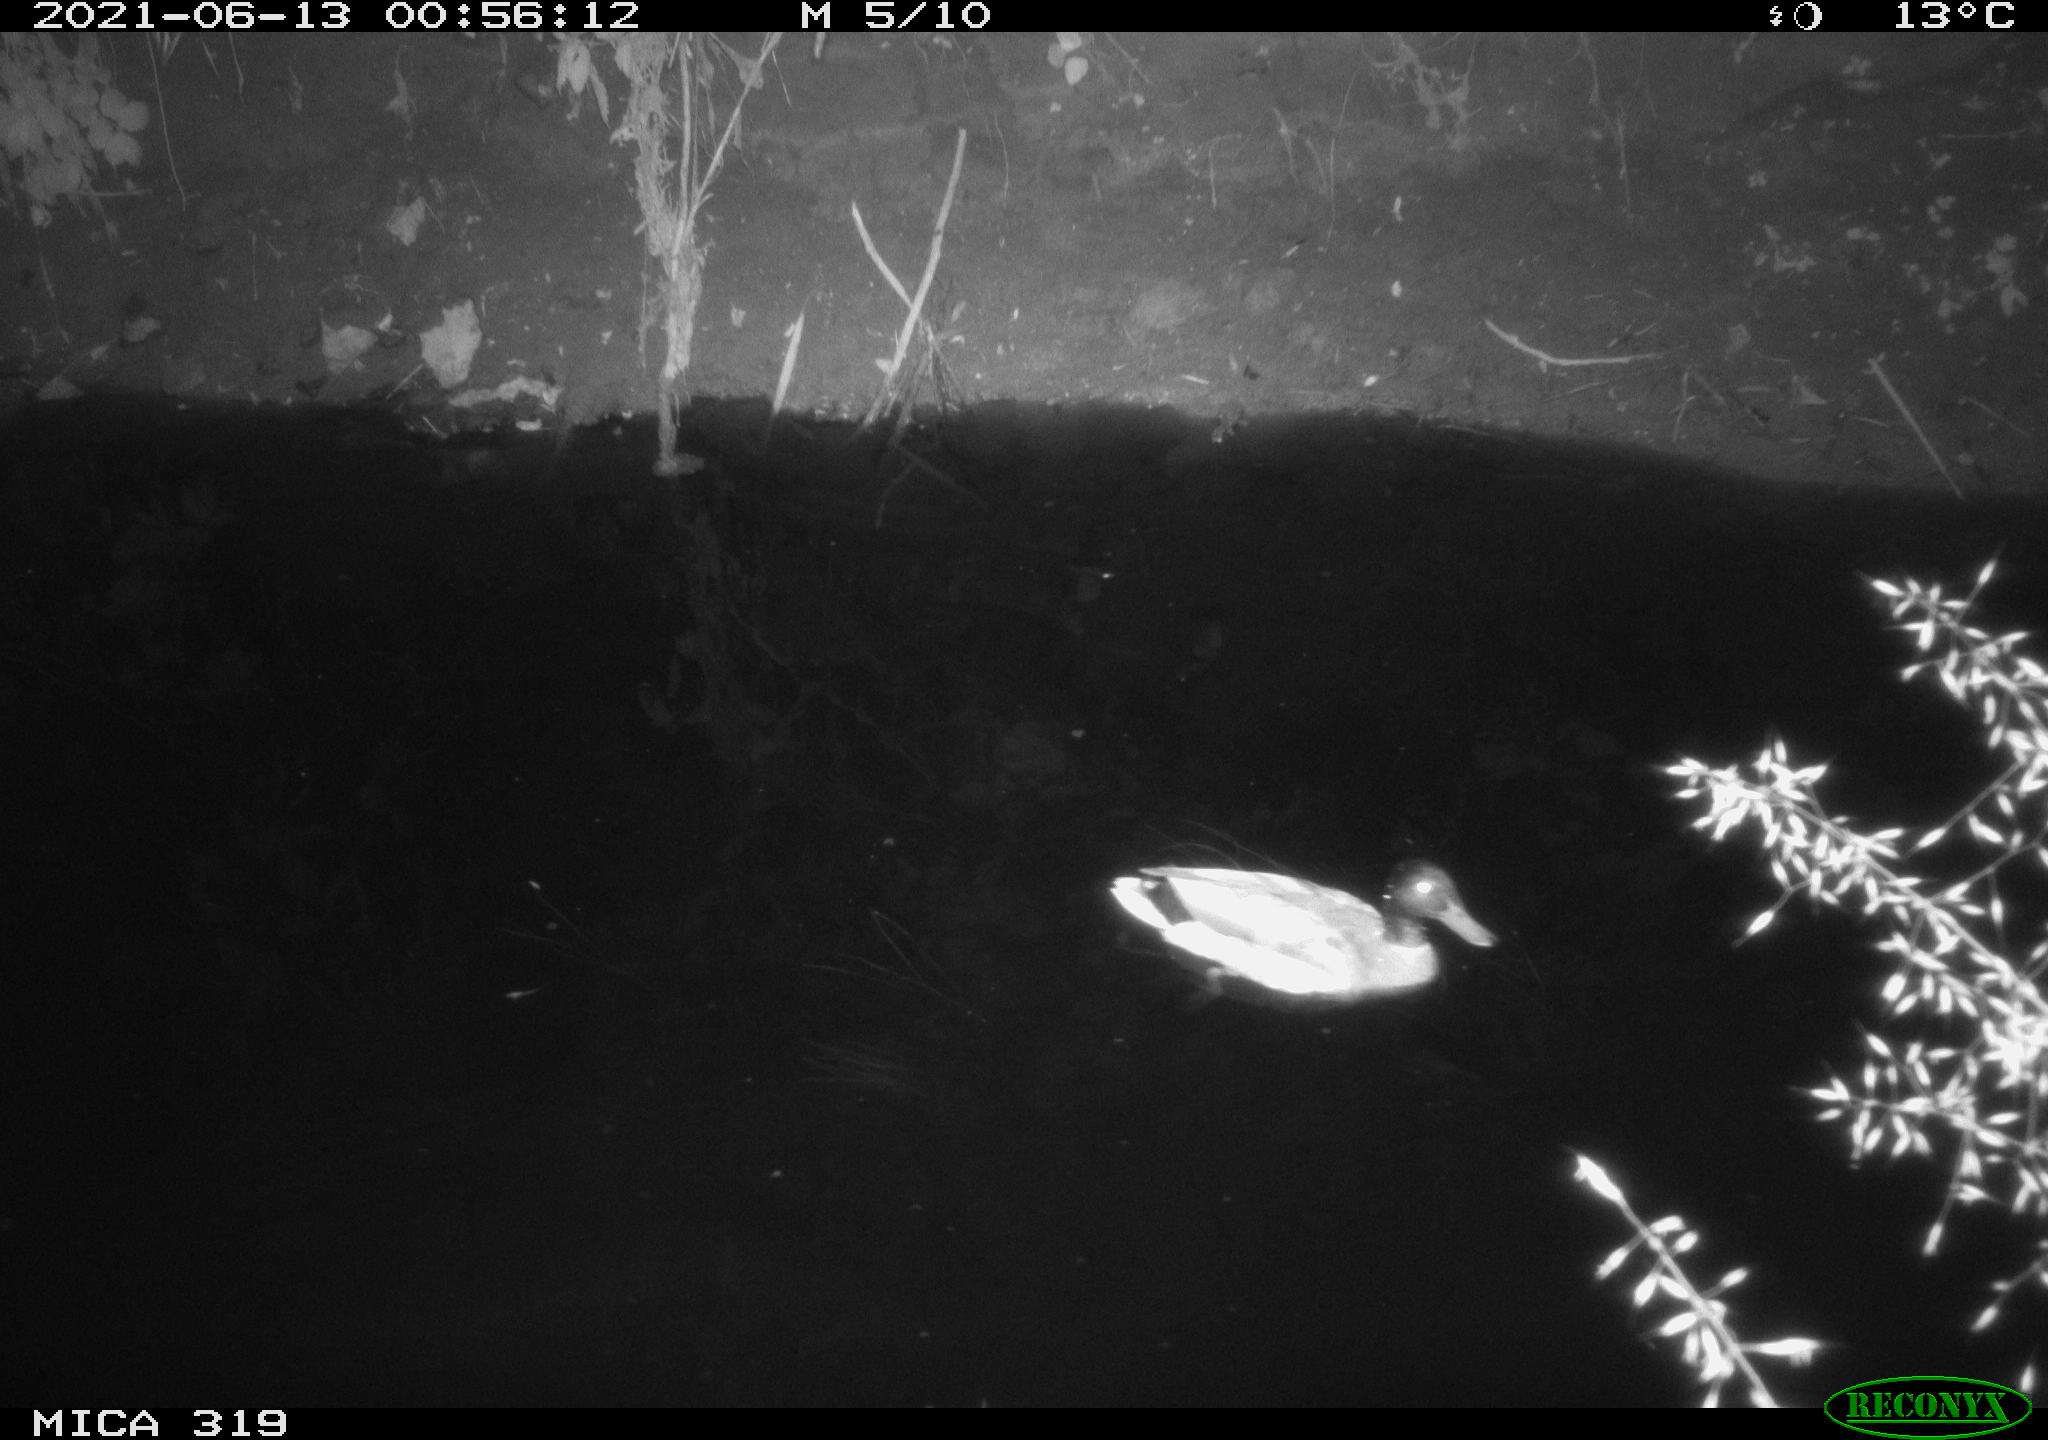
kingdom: Animalia
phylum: Chordata
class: Aves
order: Anseriformes
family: Anatidae
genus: Anas
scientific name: Anas platyrhynchos
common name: Mallard
